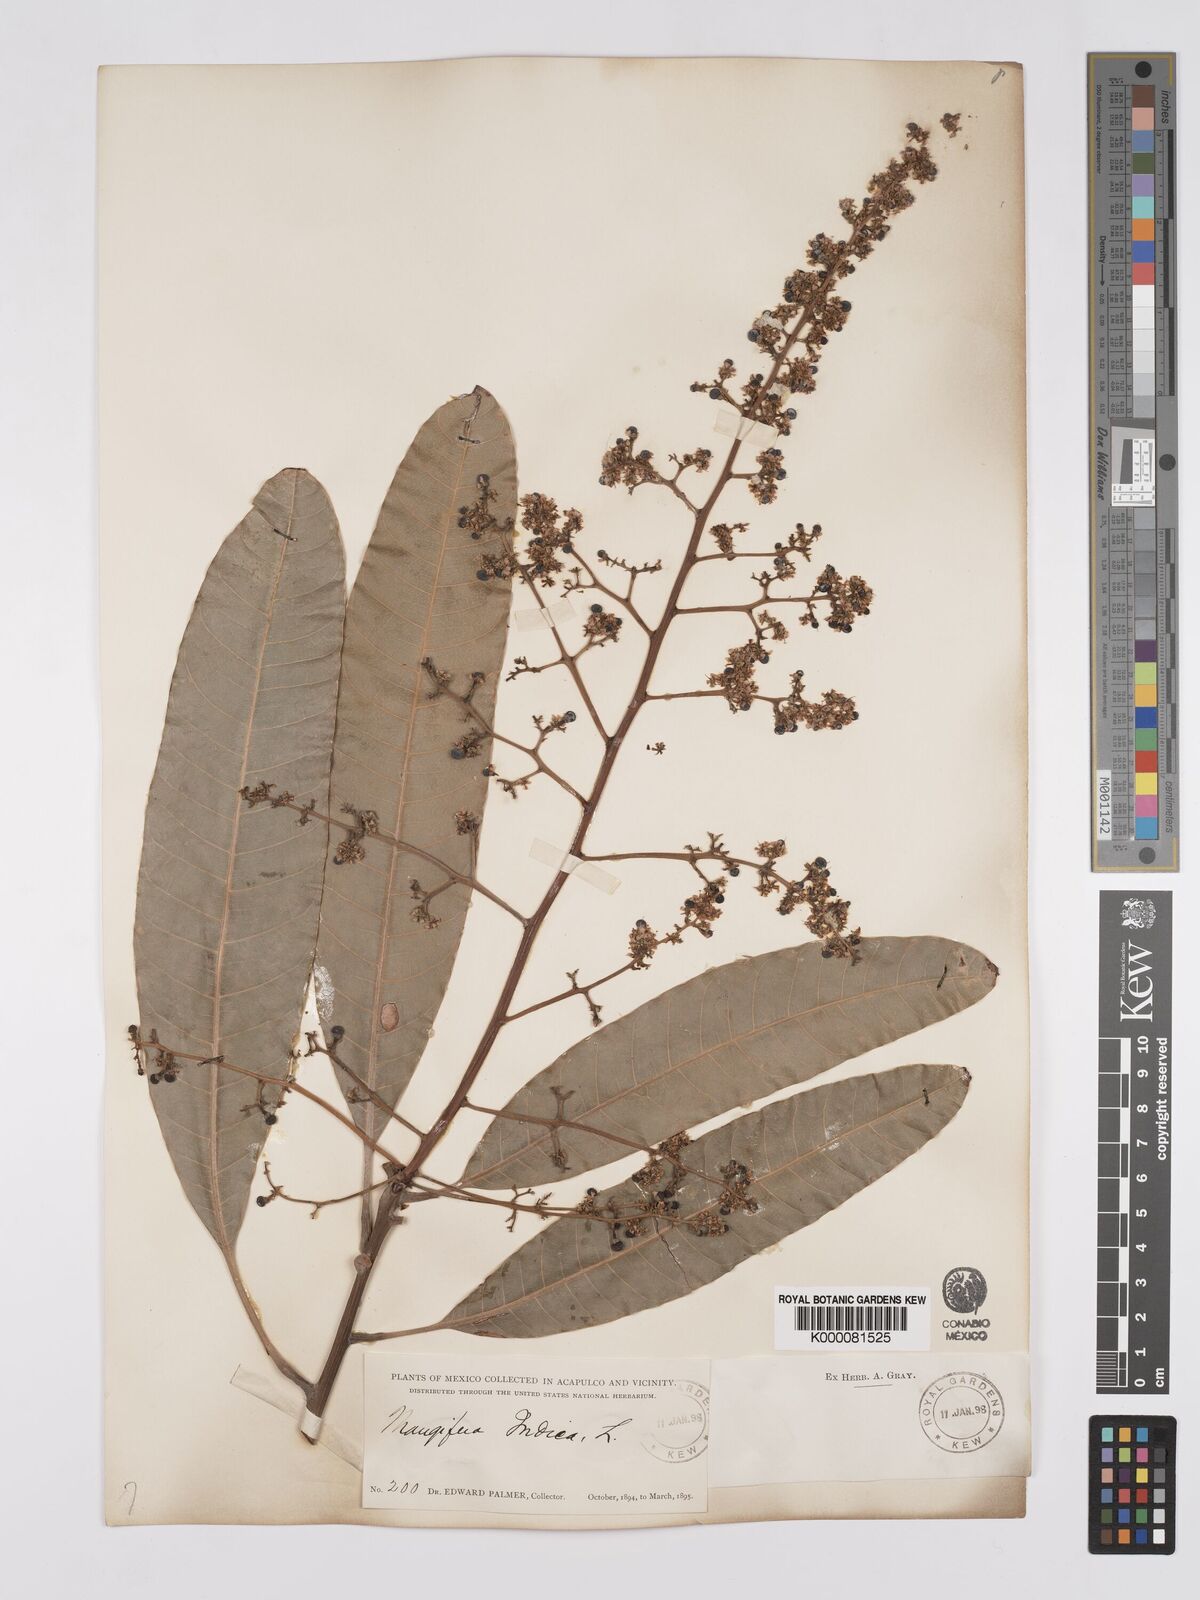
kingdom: Plantae
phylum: Tracheophyta
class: Magnoliopsida
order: Sapindales
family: Anacardiaceae
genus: Mangifera
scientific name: Mangifera indica
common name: Mango
